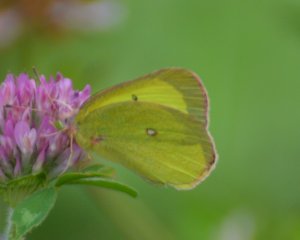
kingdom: Animalia
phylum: Arthropoda
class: Insecta
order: Lepidoptera
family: Pieridae
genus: Colias
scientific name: Colias interior
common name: Pink-edged Sulphur
